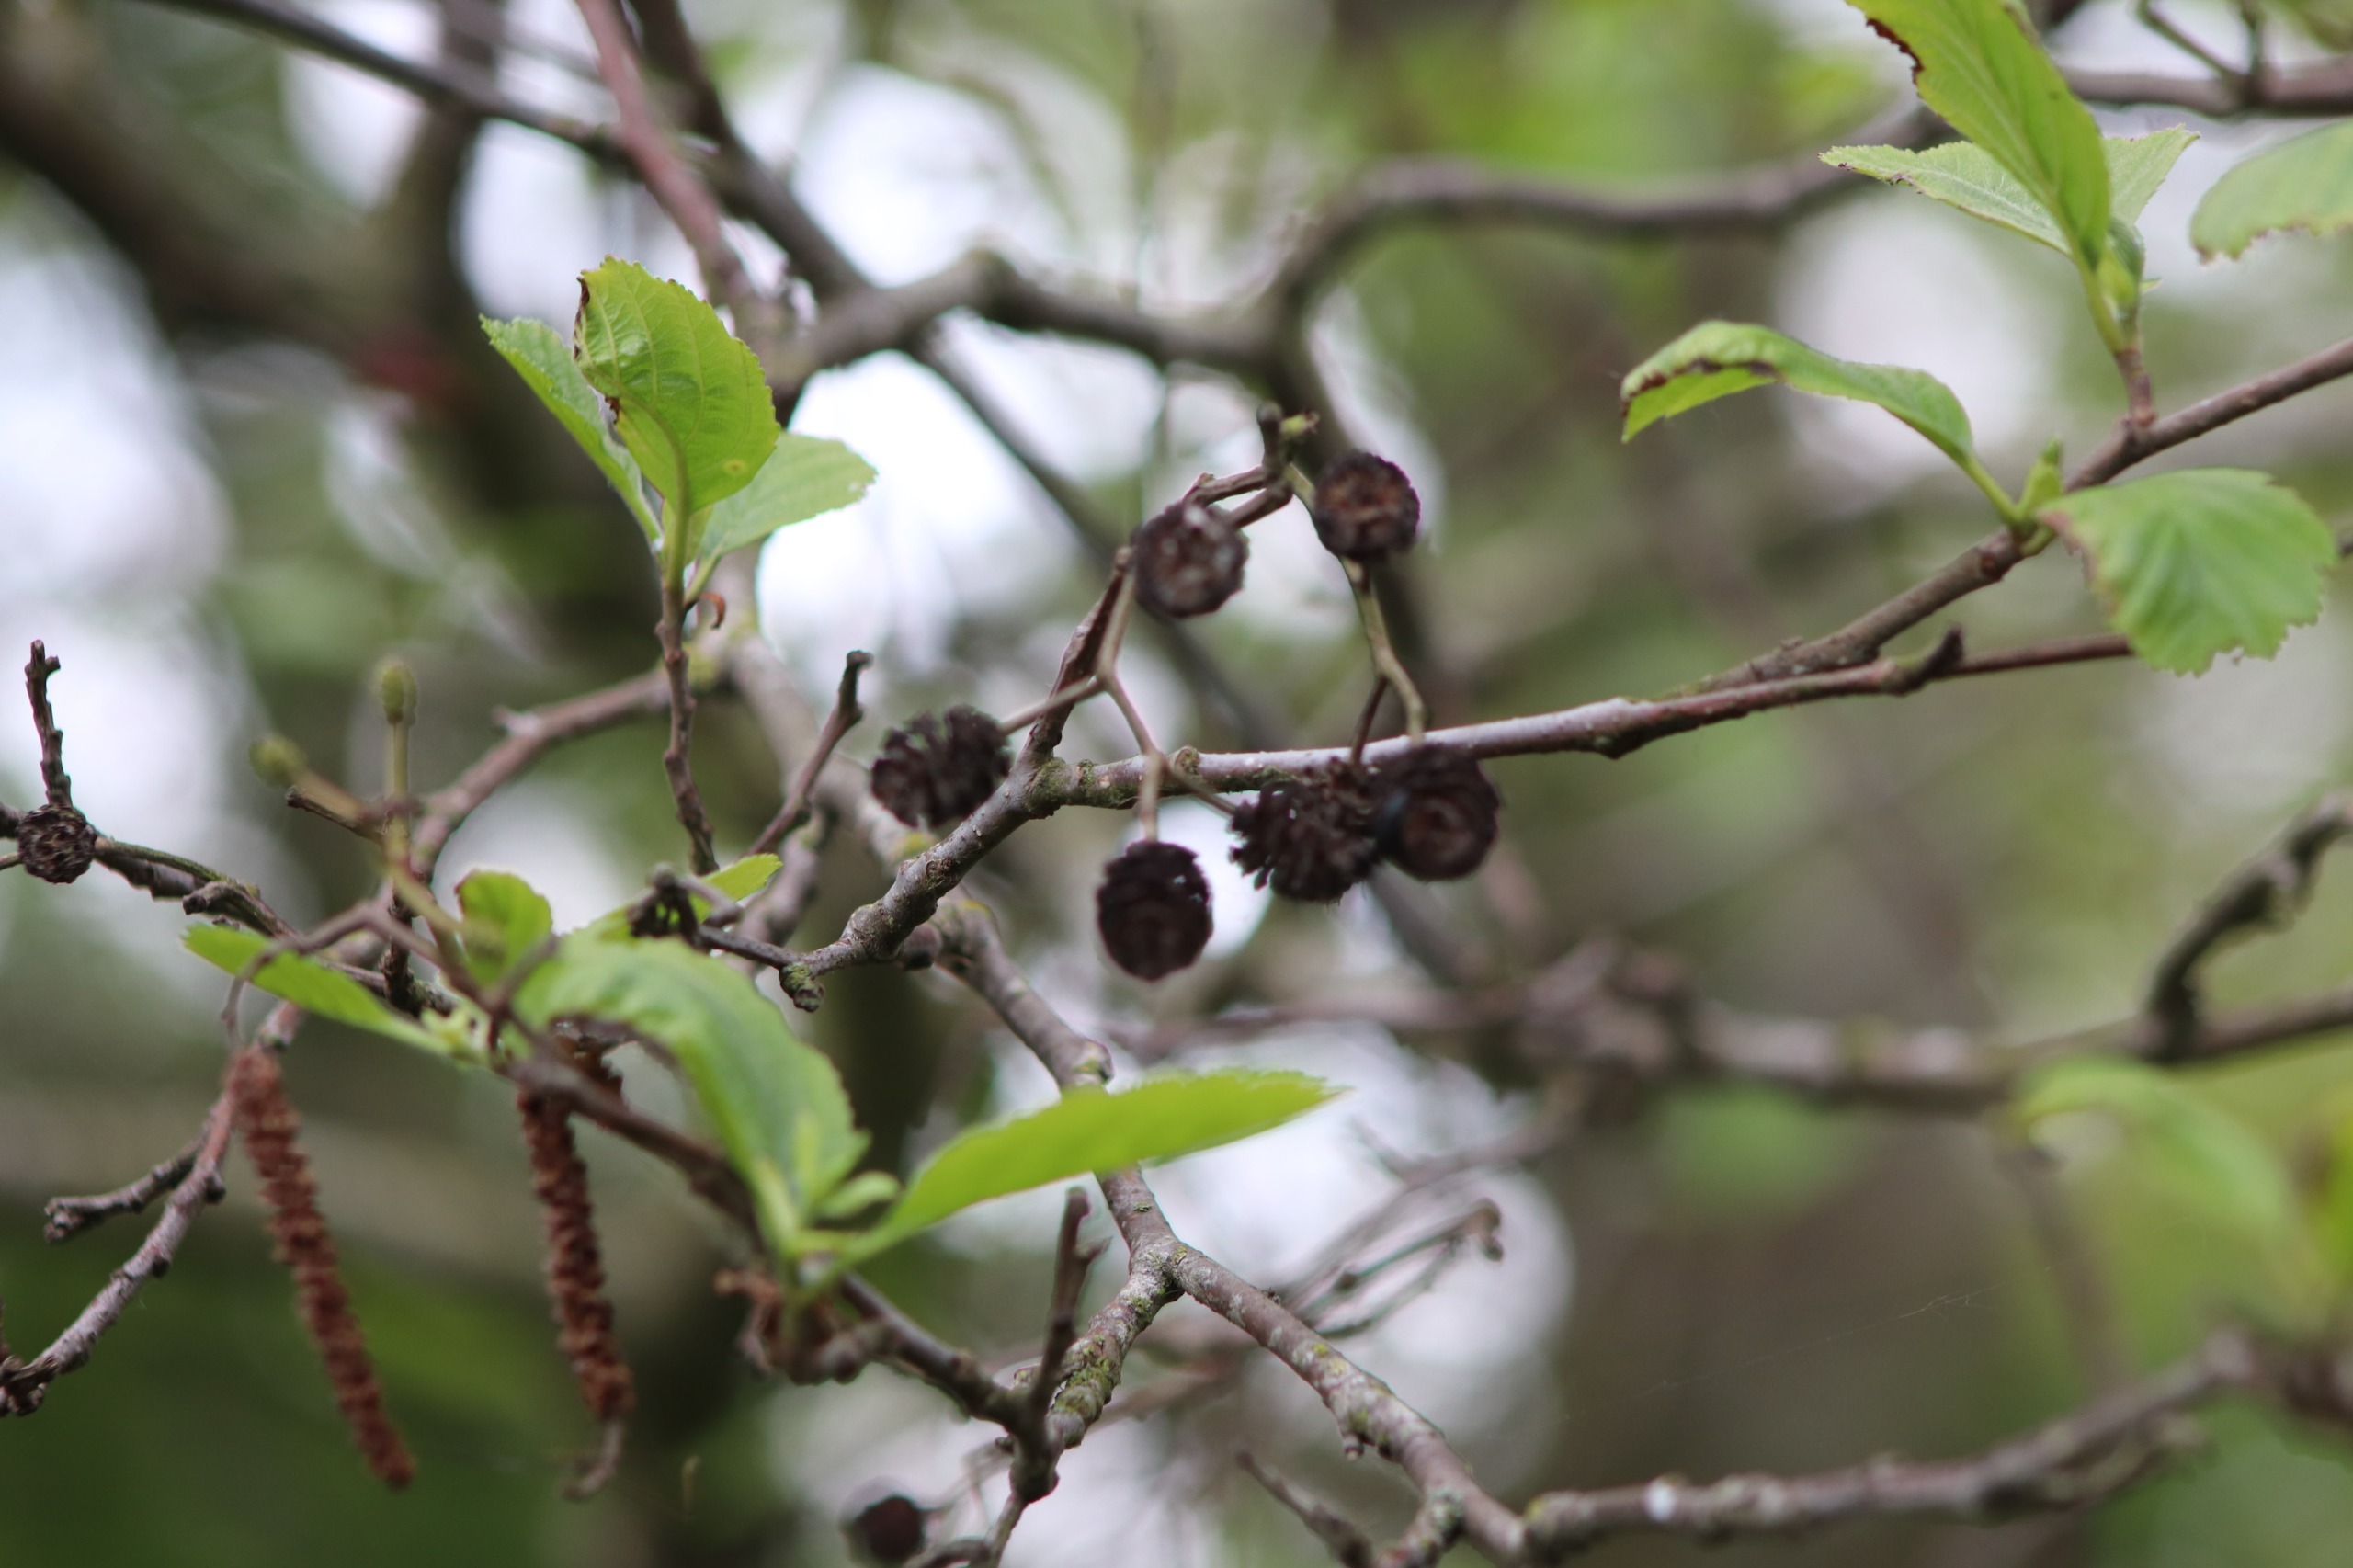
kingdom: Plantae
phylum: Tracheophyta
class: Magnoliopsida
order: Fagales
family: Betulaceae
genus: Alnus
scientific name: Alnus glutinosa
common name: Rød-el
